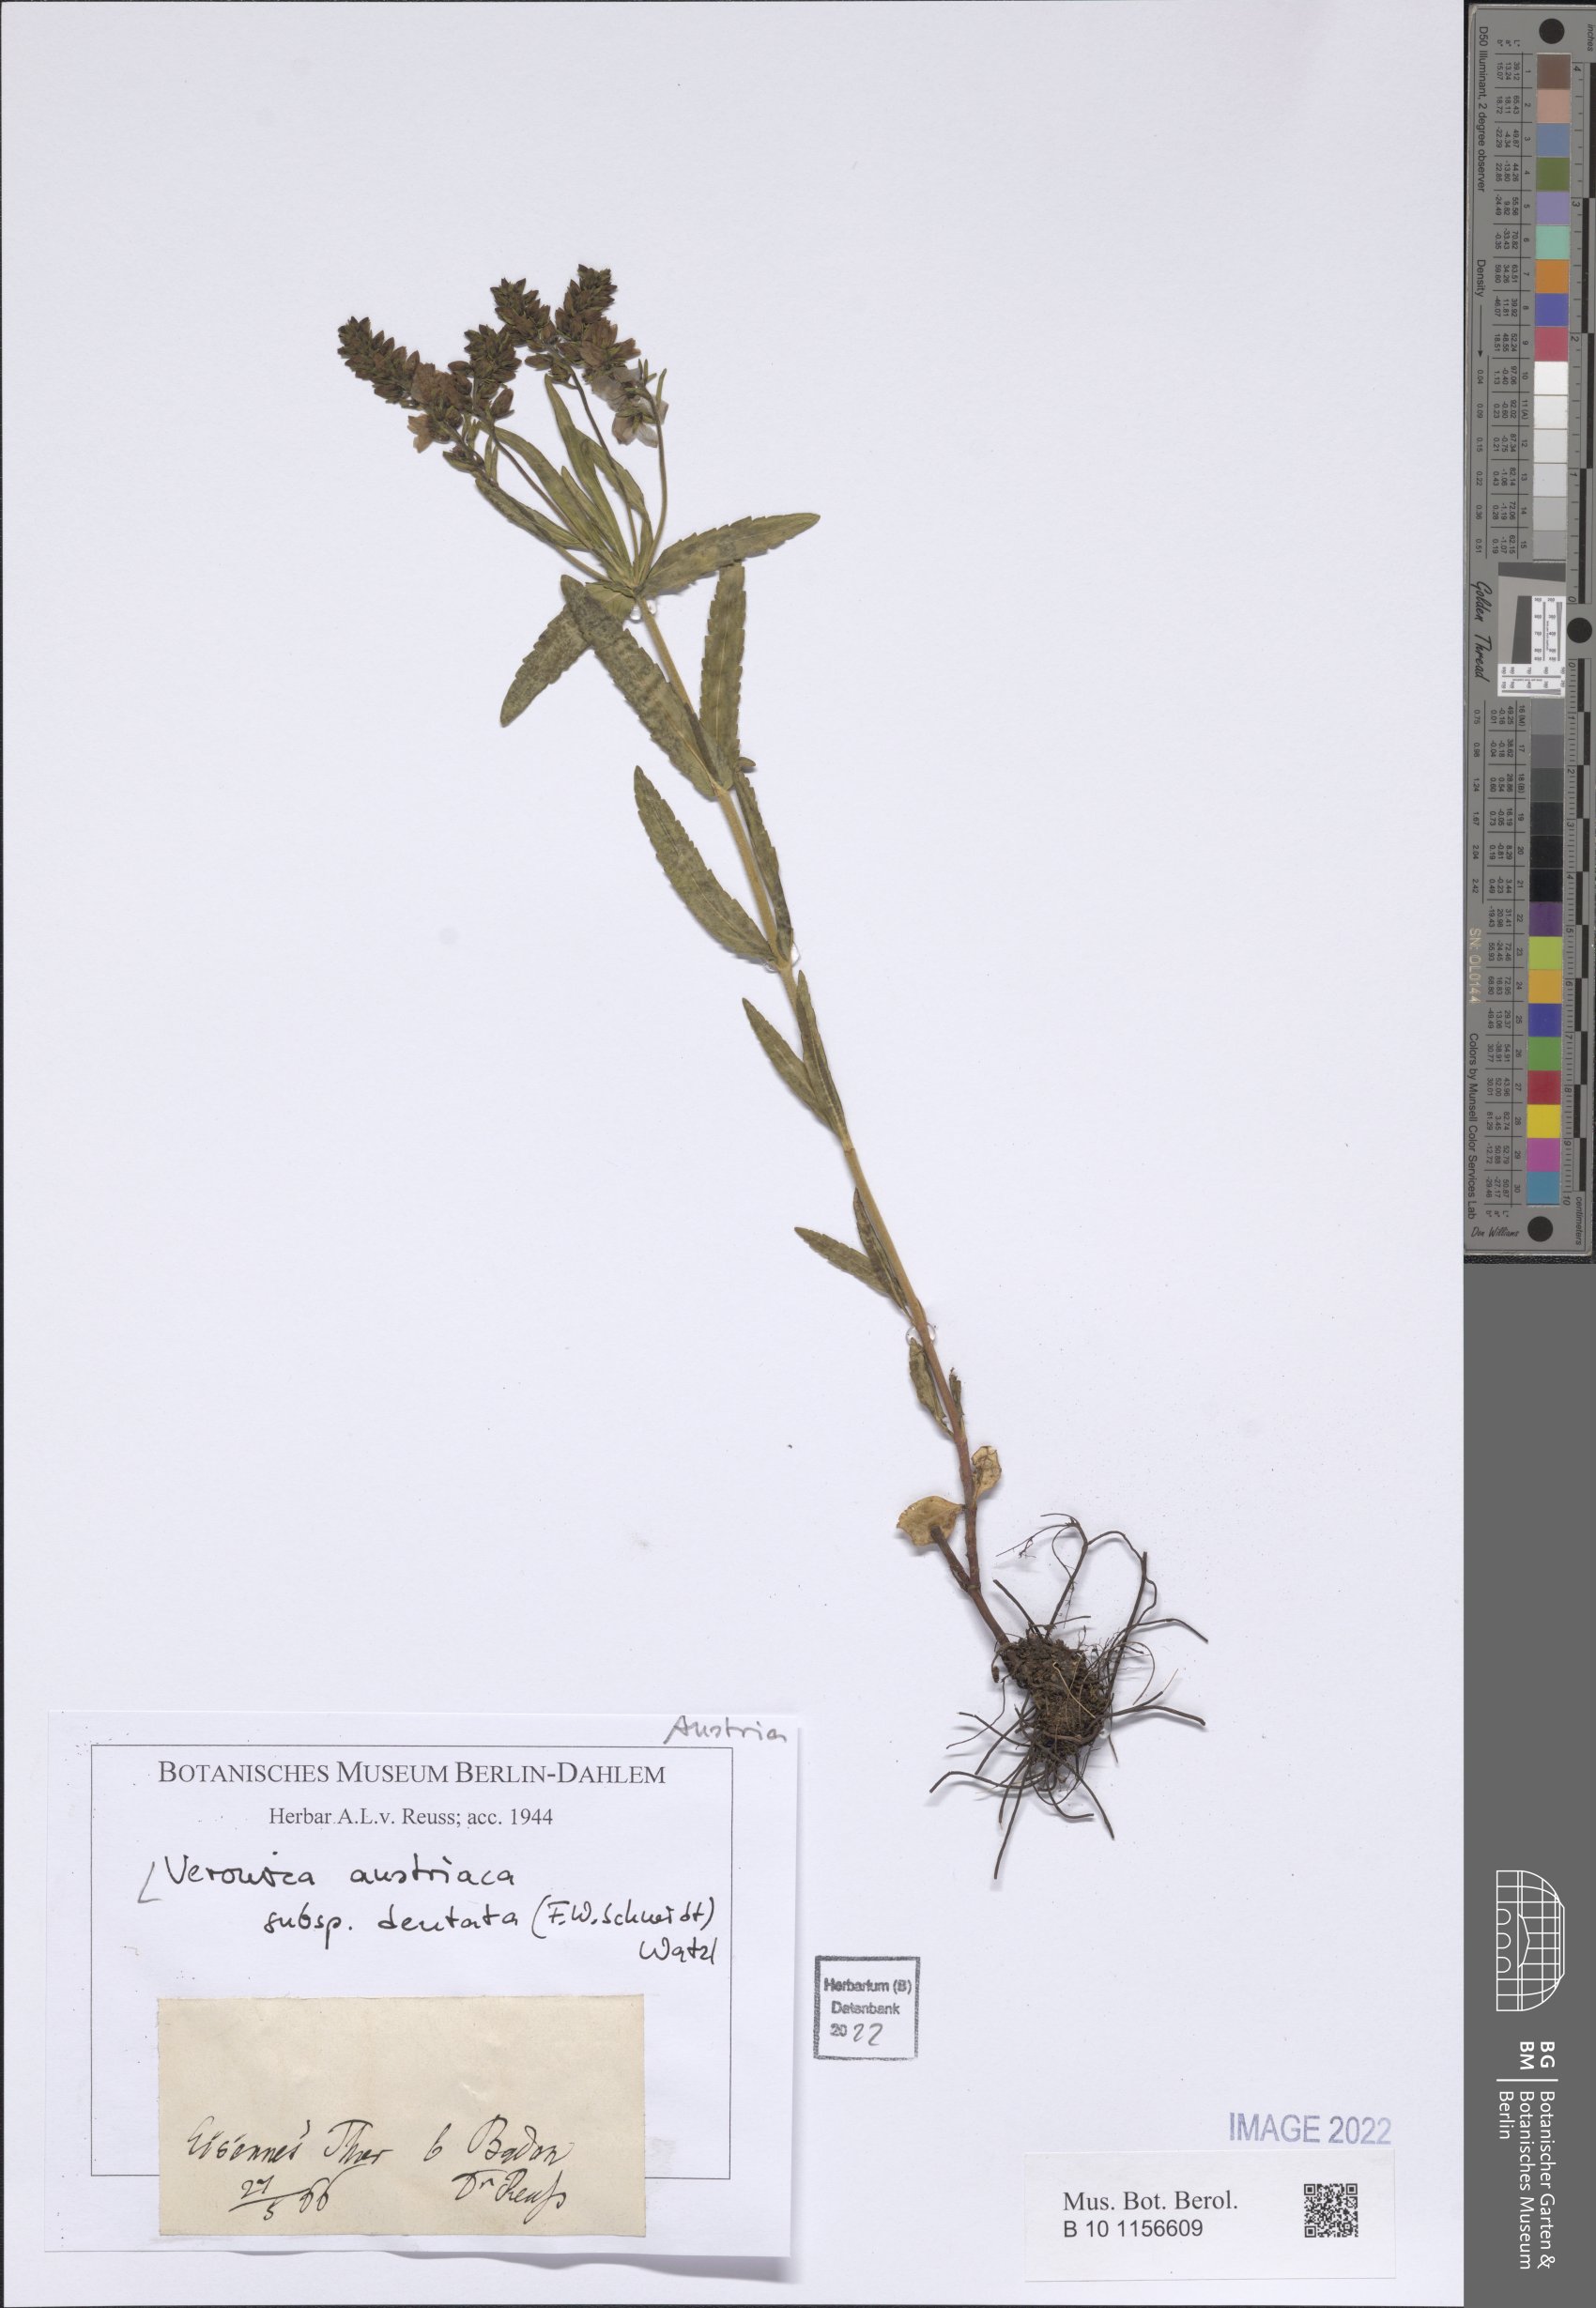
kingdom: Plantae
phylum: Tracheophyta
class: Magnoliopsida
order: Lamiales
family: Plantaginaceae
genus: Veronica
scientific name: Veronica austriaca
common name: Large speedwell
